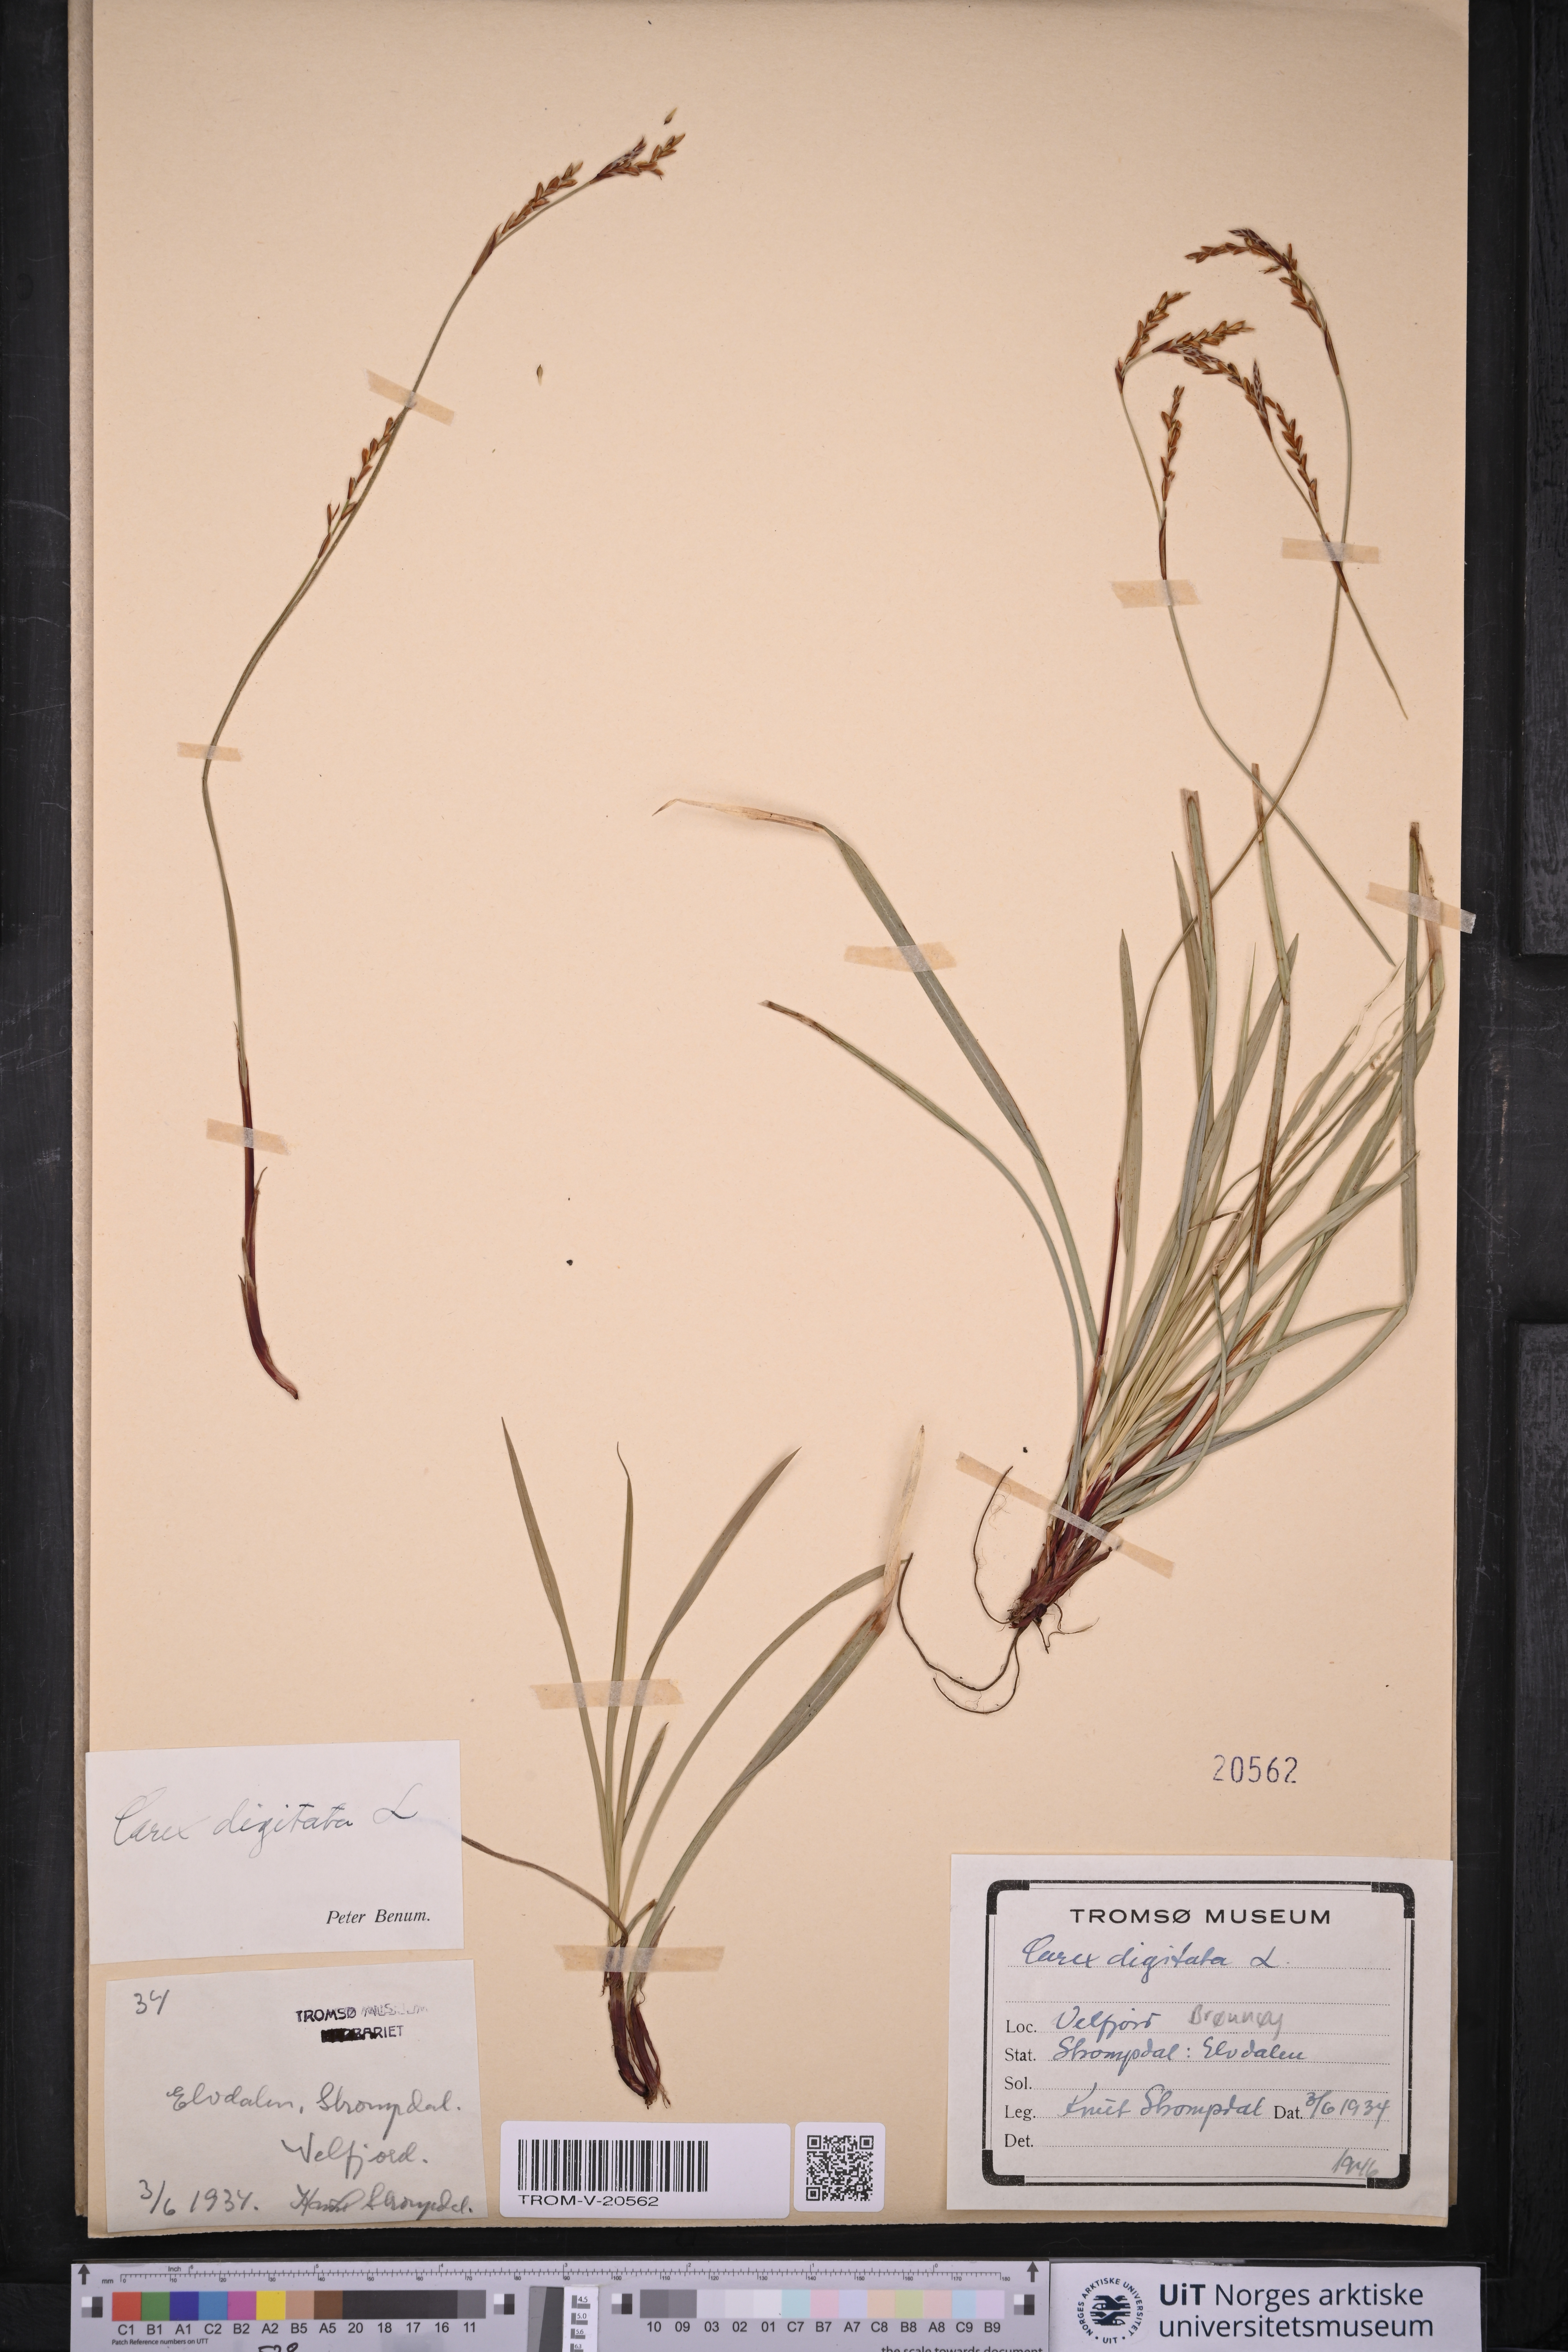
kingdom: Plantae
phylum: Tracheophyta
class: Liliopsida
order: Poales
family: Cyperaceae
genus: Carex
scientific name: Carex digitata
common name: Fingered sedge
